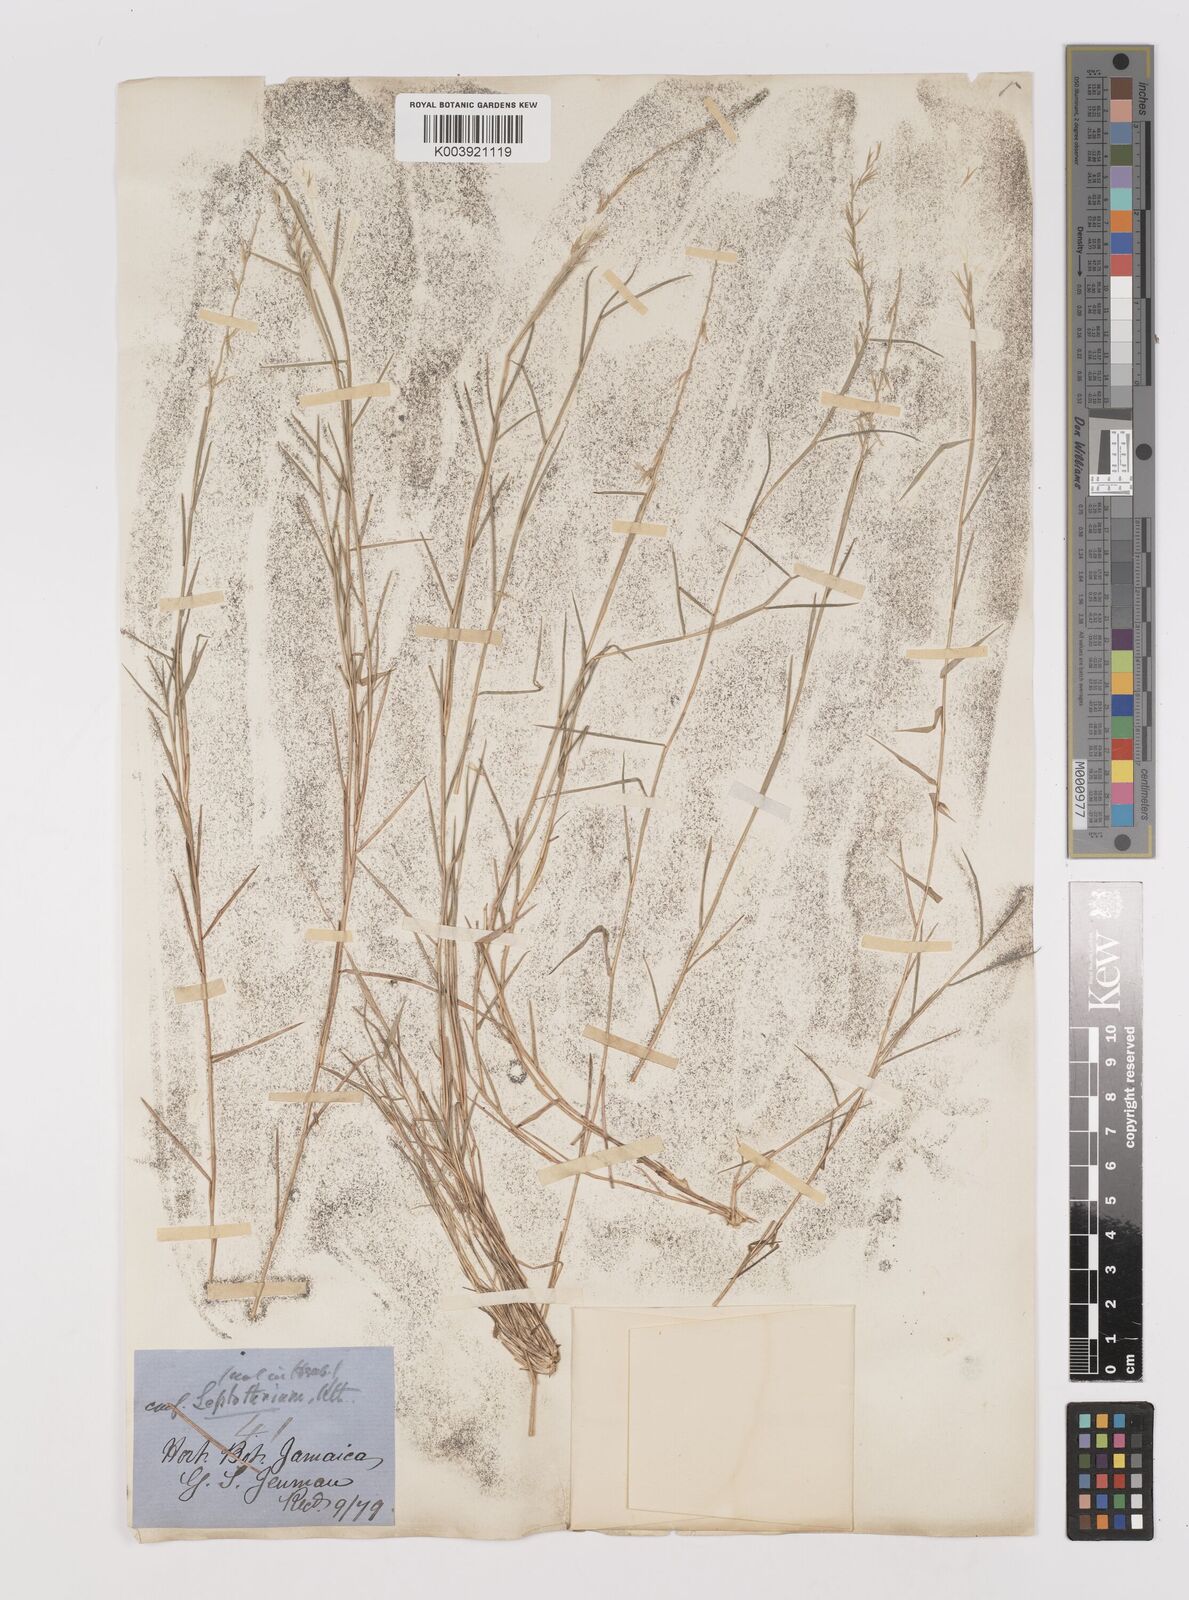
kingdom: Plantae
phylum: Tracheophyta
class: Liliopsida
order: Poales
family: Poaceae
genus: Leptothrium
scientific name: Leptothrium rigidum
